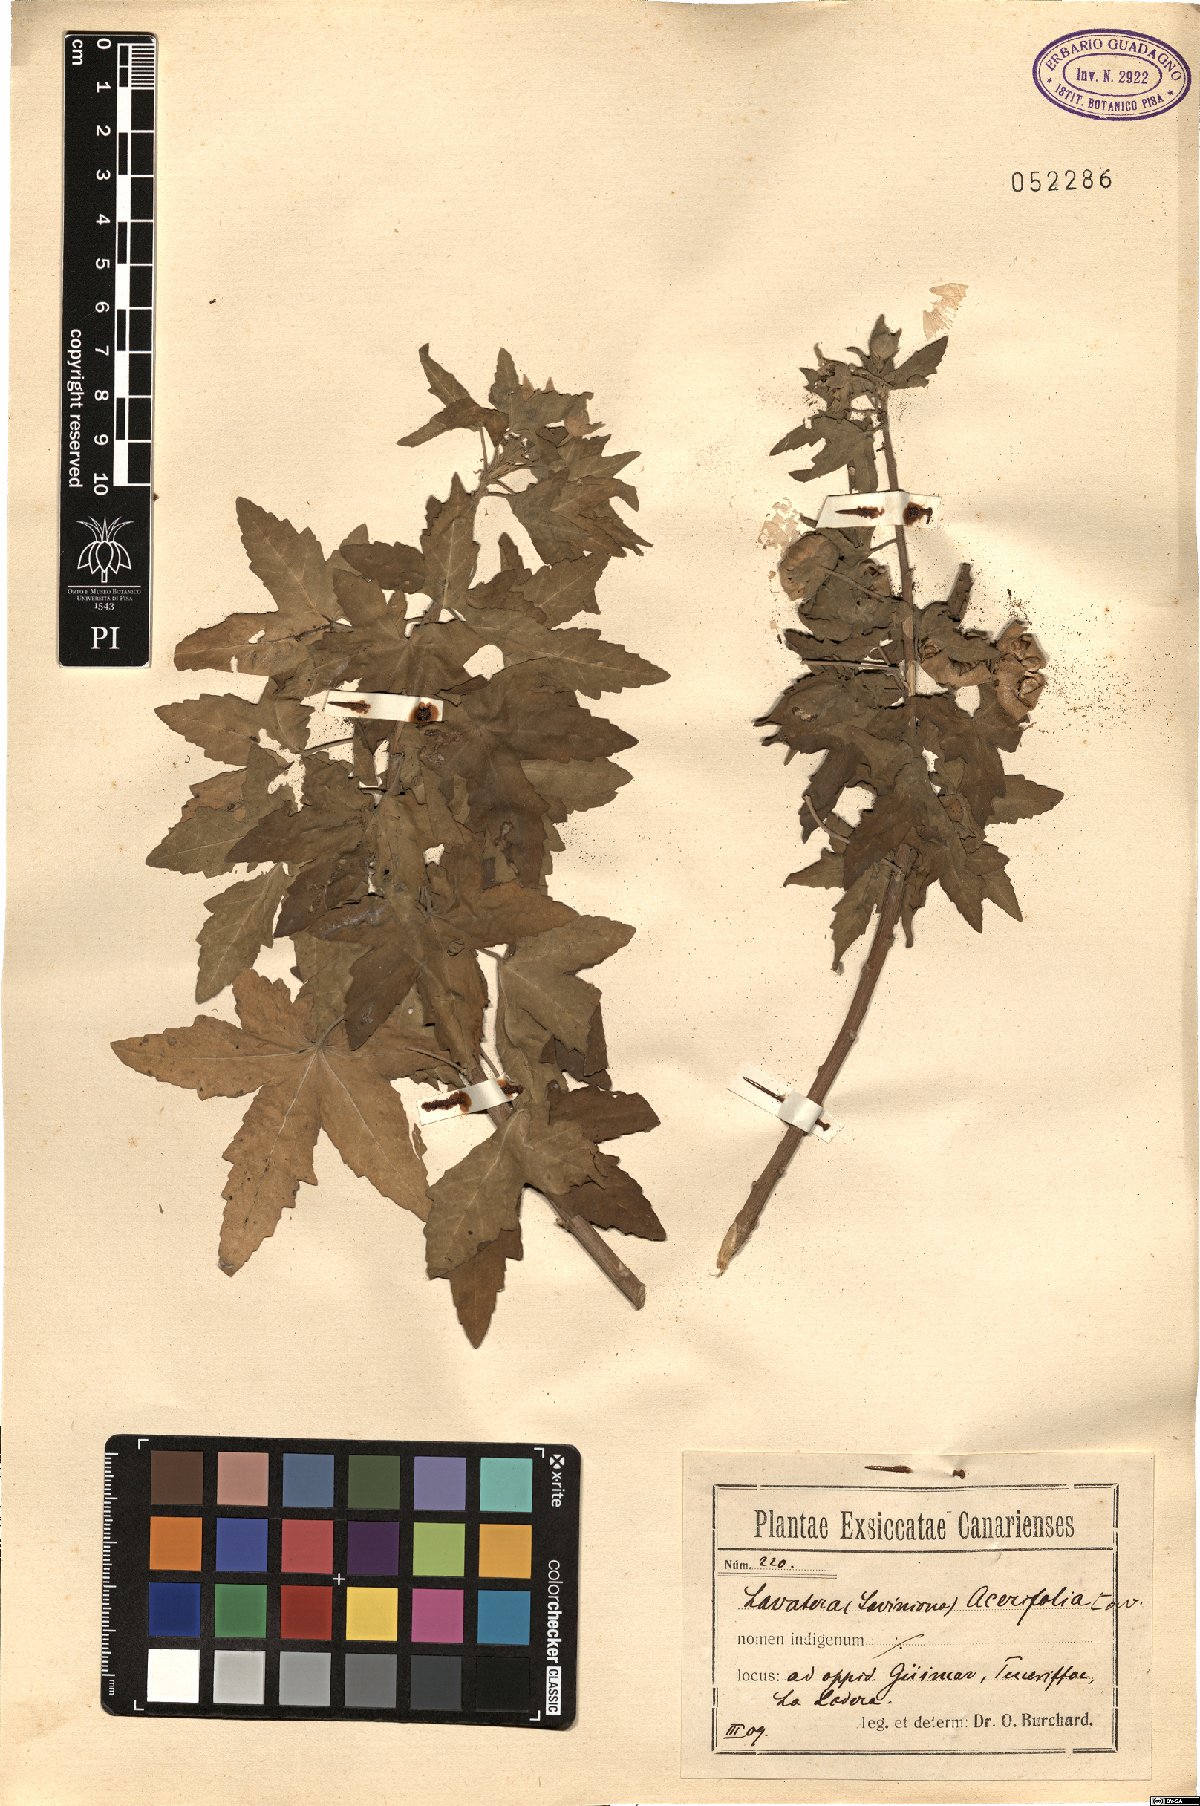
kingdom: Plantae
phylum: Tracheophyta
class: Magnoliopsida
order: Malvales
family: Malvaceae
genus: Malva
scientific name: Malva acerifolia
